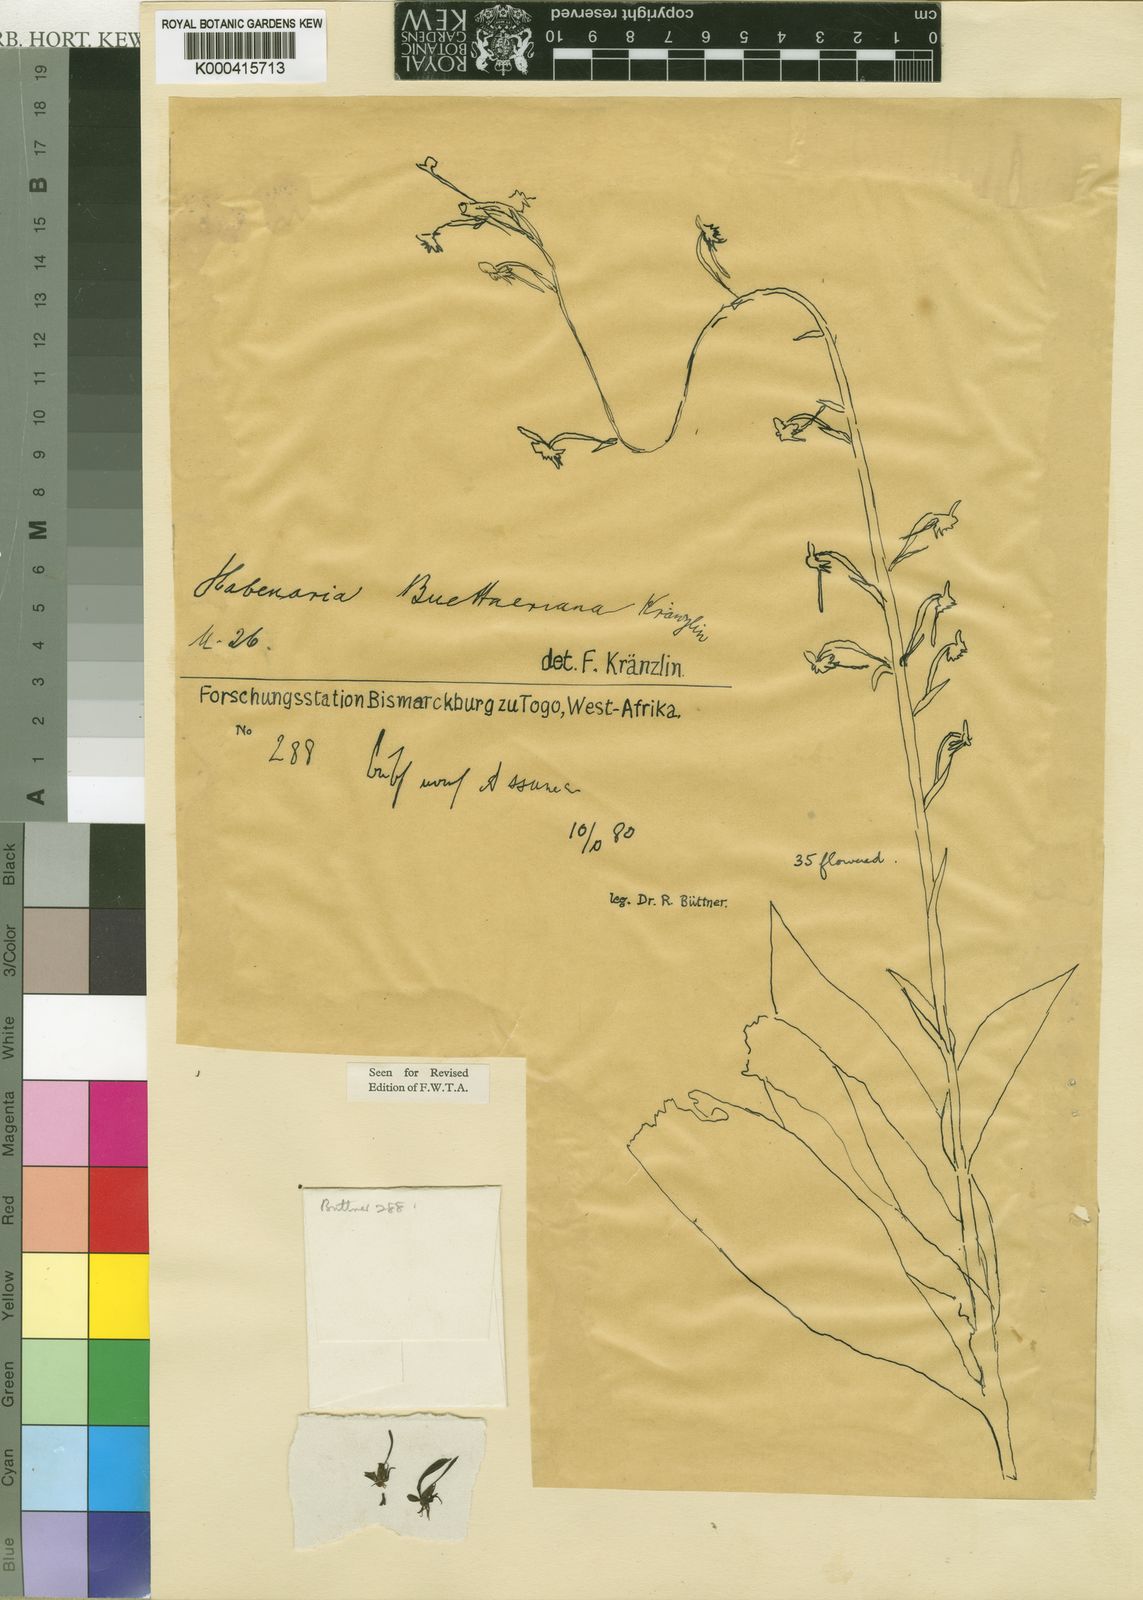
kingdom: Plantae
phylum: Tracheophyta
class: Liliopsida
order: Asparagales
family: Orchidaceae
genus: Habenaria
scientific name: Habenaria buettneriana
